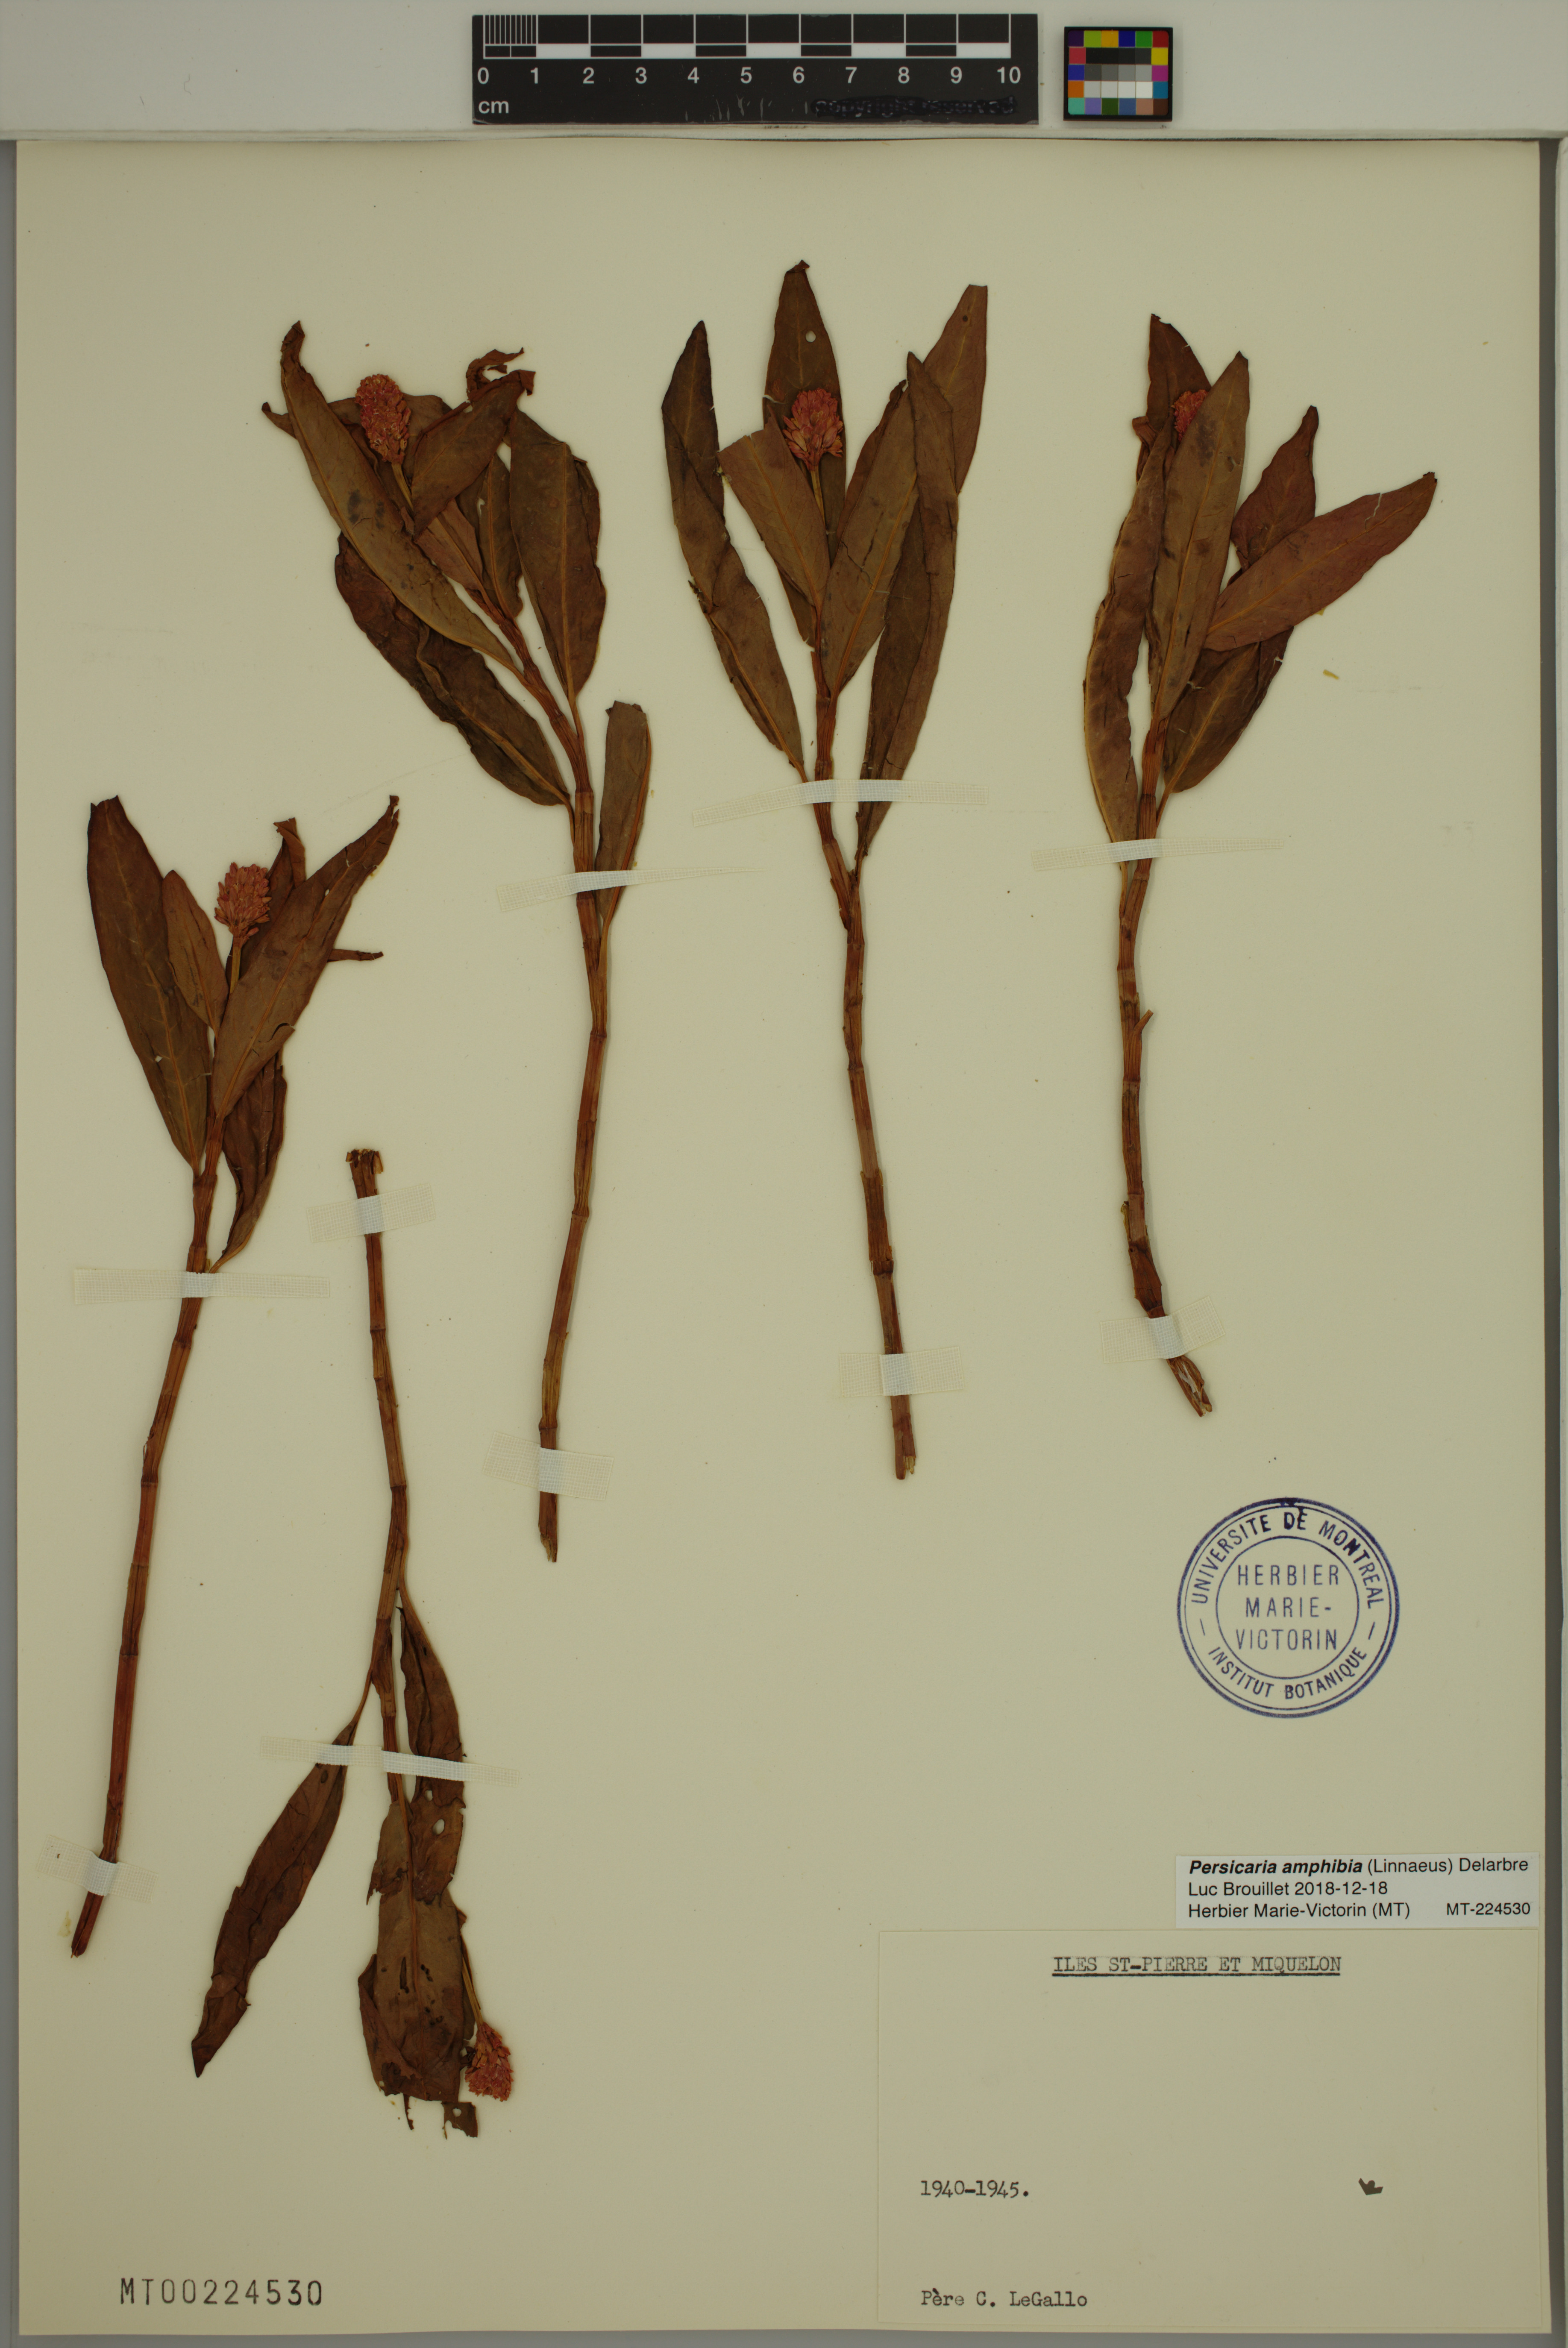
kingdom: Plantae
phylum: Tracheophyta
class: Magnoliopsida
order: Caryophyllales
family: Polygonaceae
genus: Persicaria
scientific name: Persicaria amphibia
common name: Amphibious bistort
